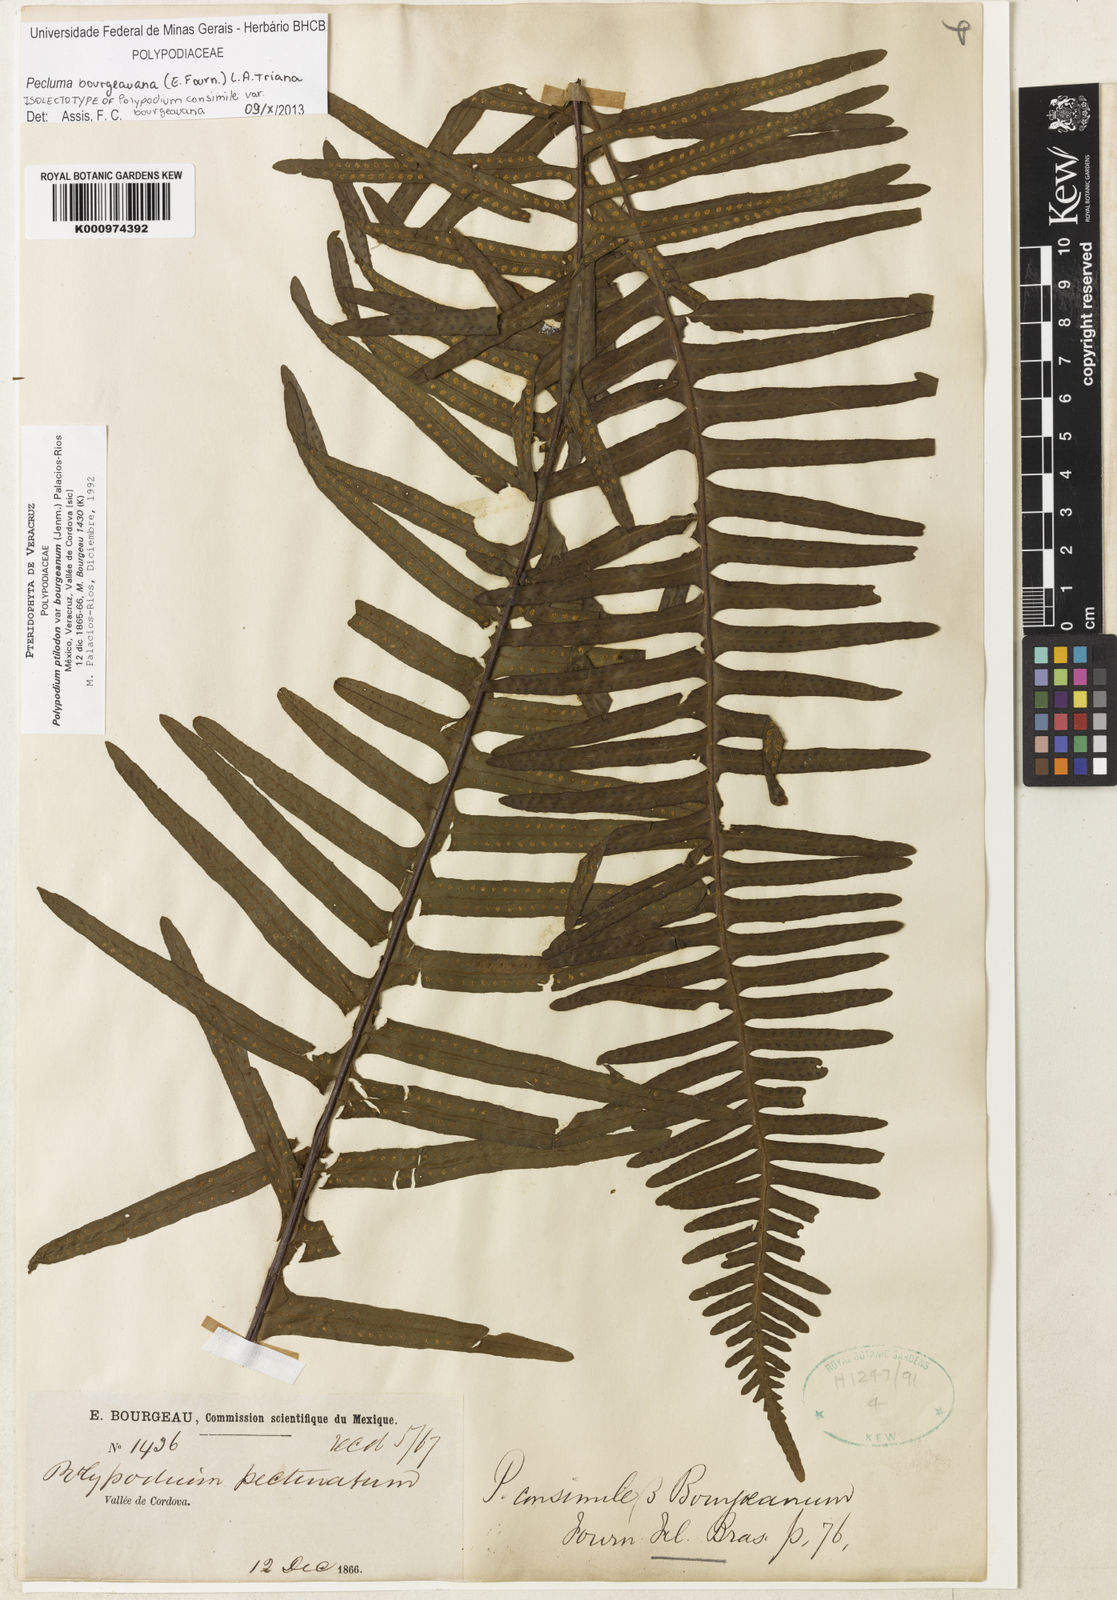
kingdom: Plantae
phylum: Tracheophyta
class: Polypodiopsida
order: Polypodiales
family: Polypodiaceae
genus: Pecluma
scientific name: Pecluma bourgeauana
